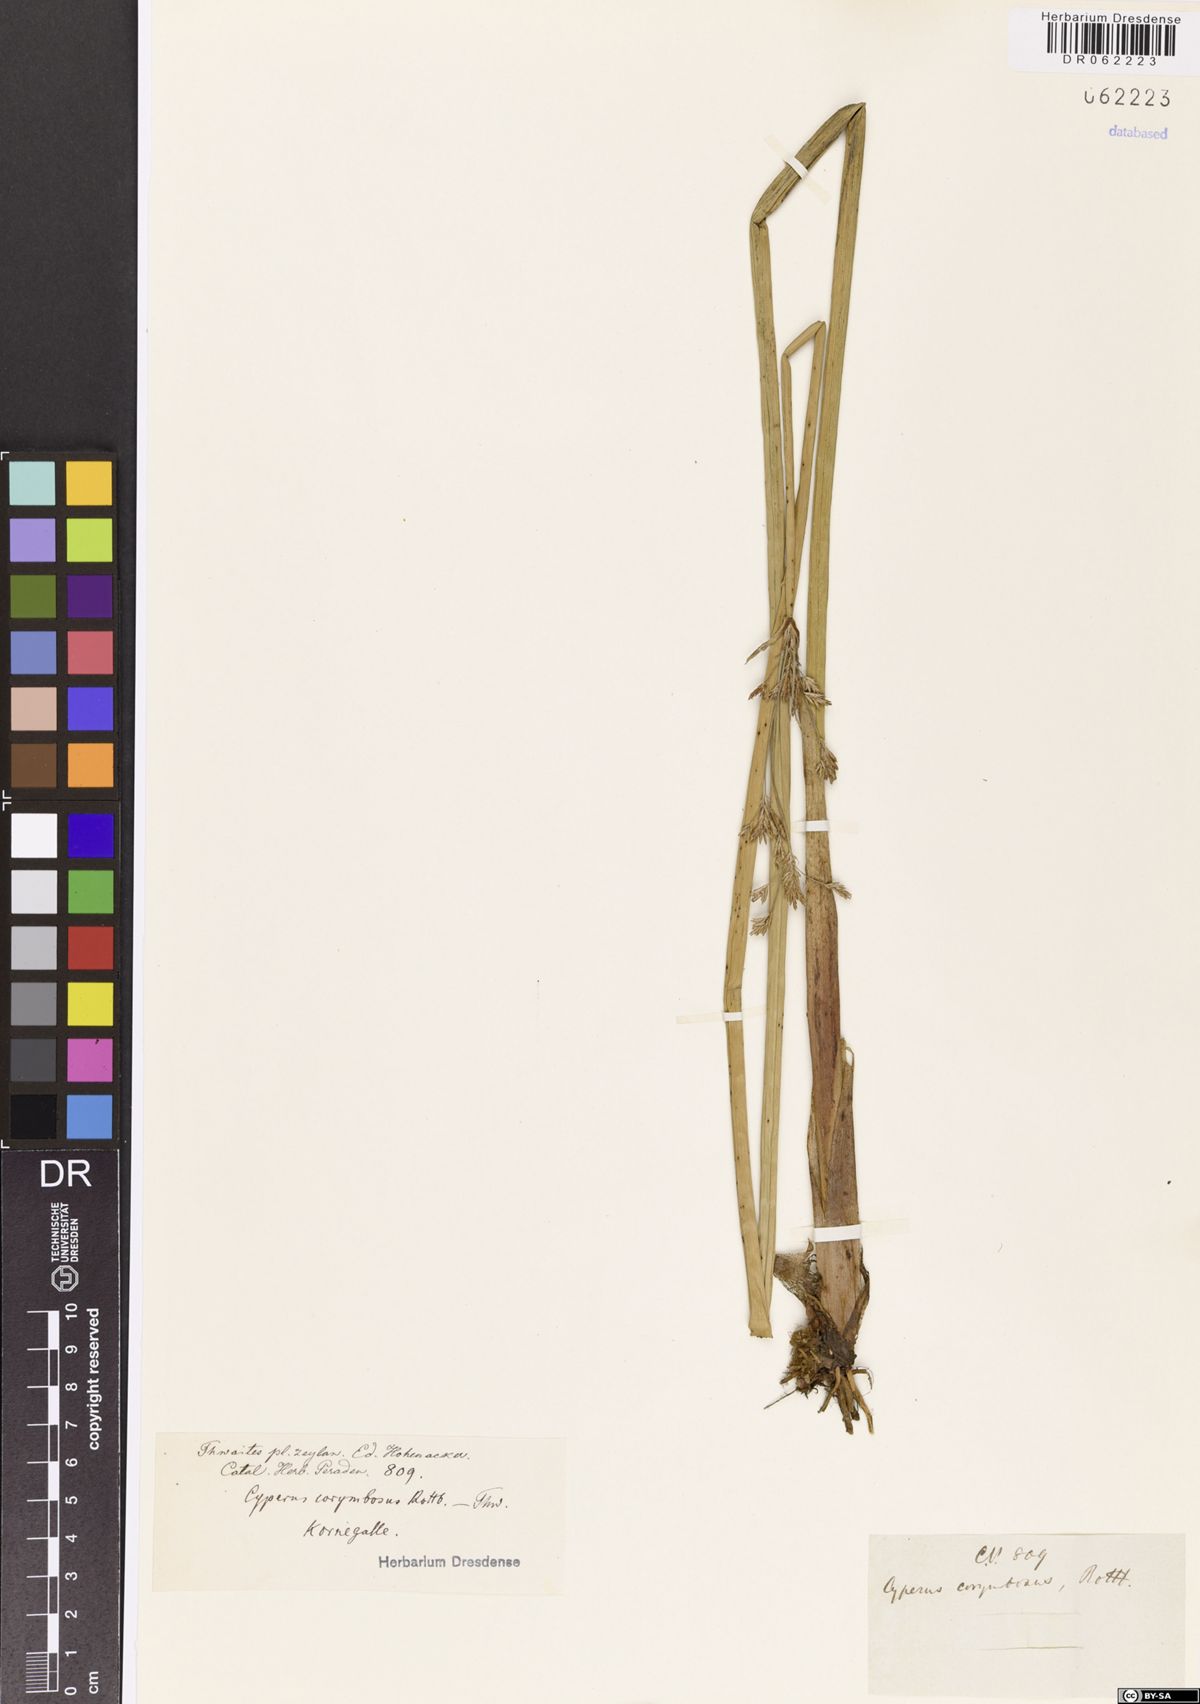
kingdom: Plantae
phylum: Tracheophyta
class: Liliopsida
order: Poales
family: Cyperaceae
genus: Cyperus
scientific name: Cyperus corymbosus
